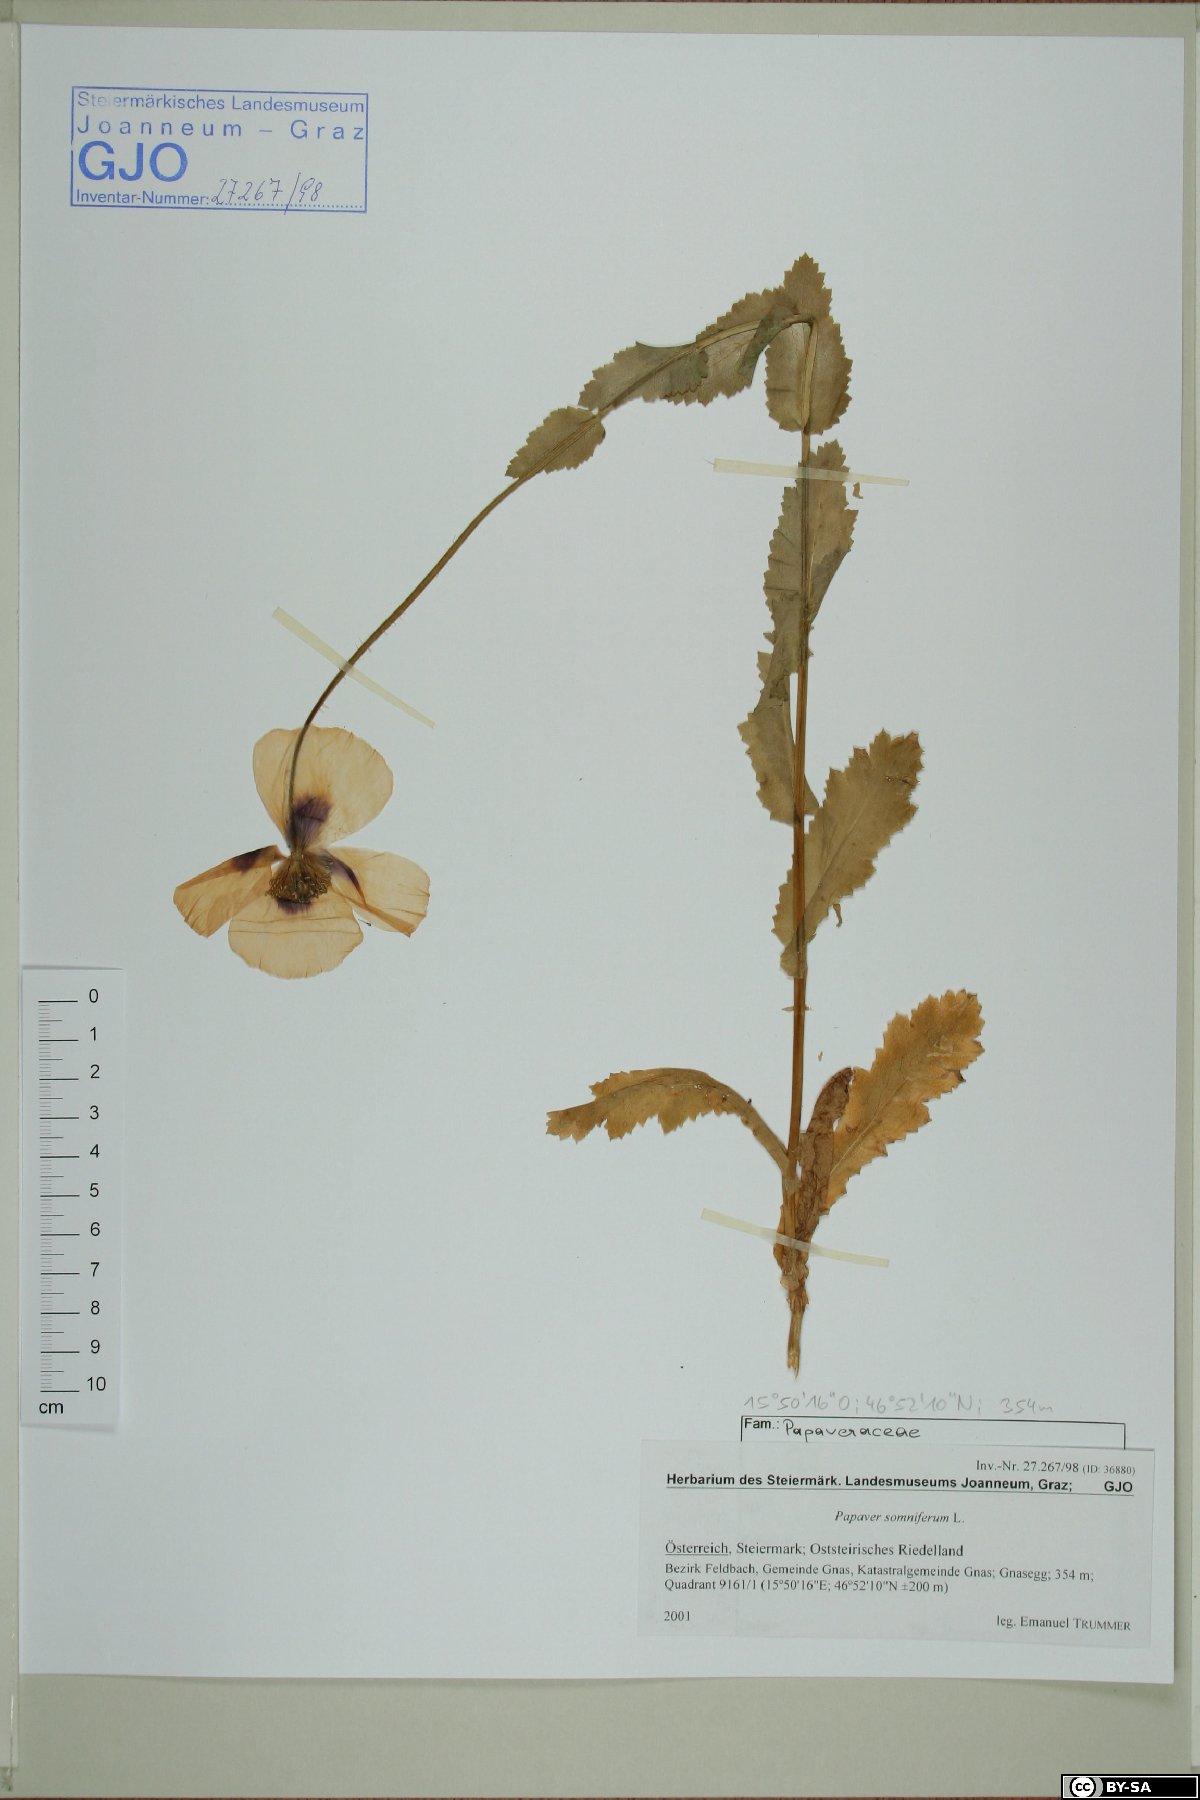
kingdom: Plantae
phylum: Tracheophyta
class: Magnoliopsida
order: Ranunculales
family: Papaveraceae
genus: Papaver
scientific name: Papaver somniferum
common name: Opium poppy
